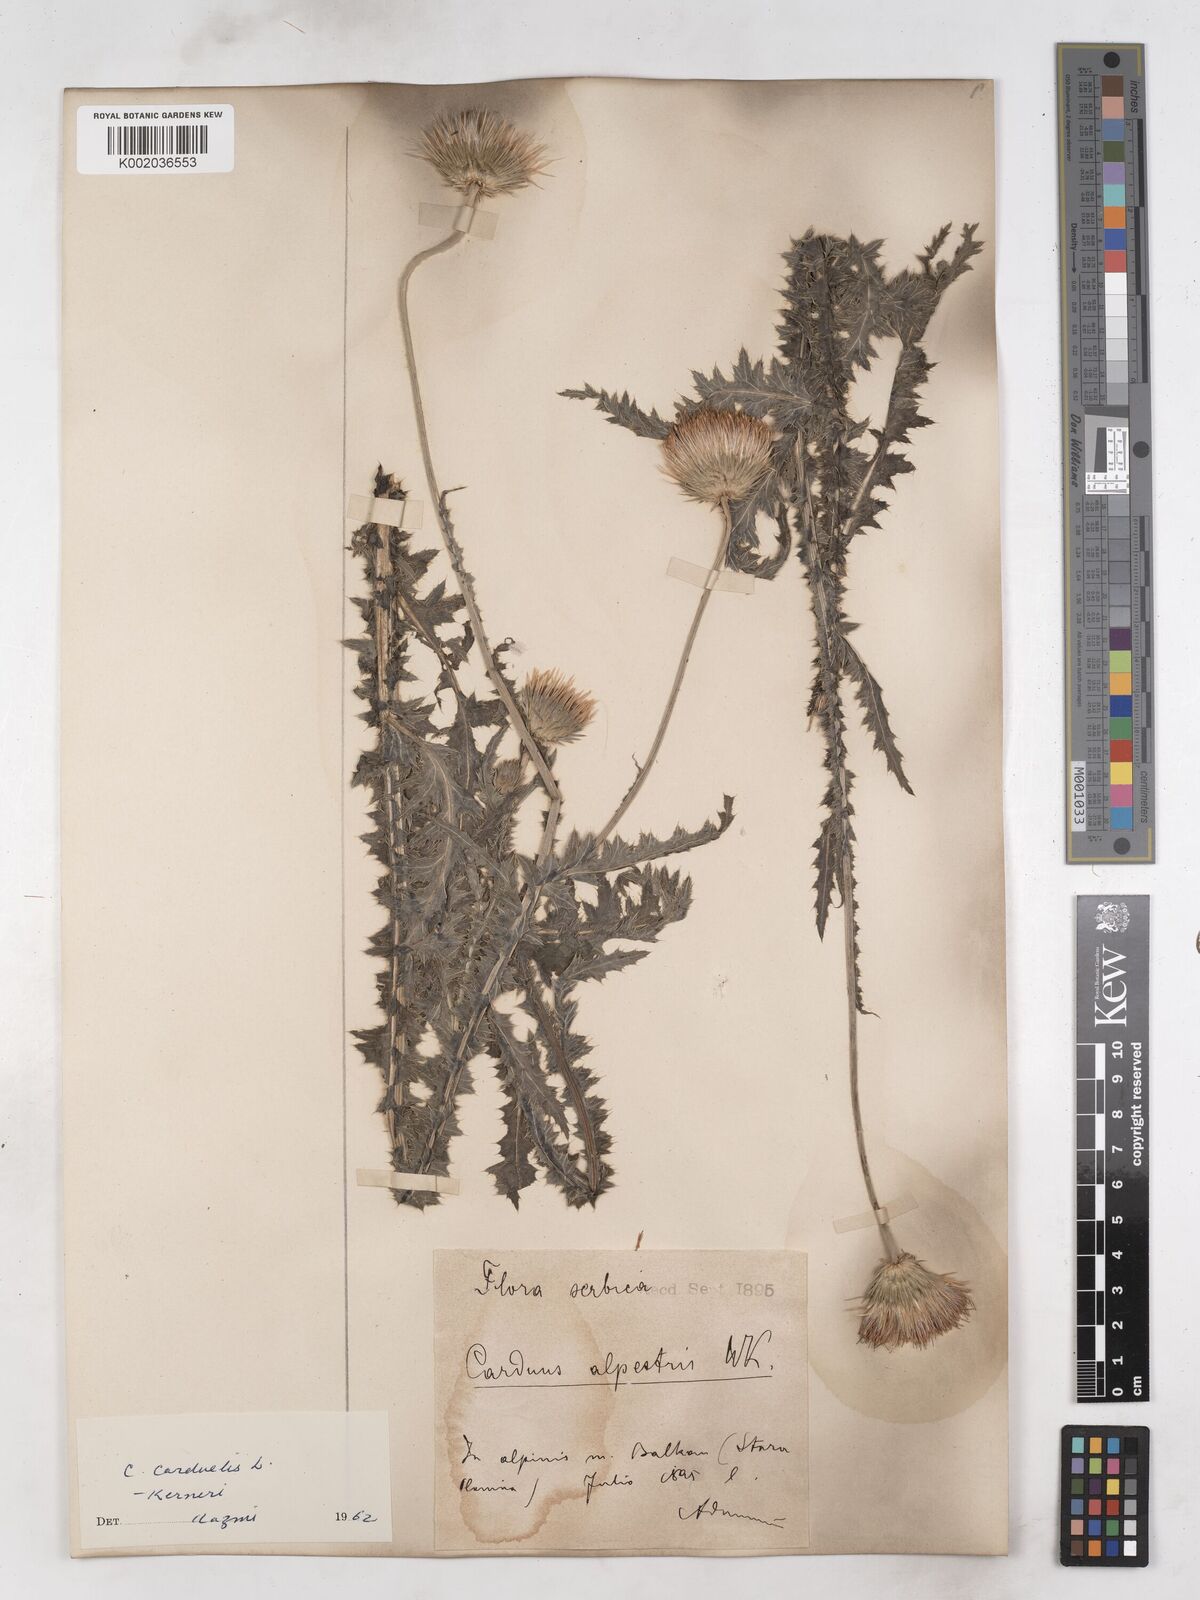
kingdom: Plantae
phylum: Tracheophyta
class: Magnoliopsida
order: Asterales
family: Asteraceae
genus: Carduus
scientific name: Carduus kerneri
